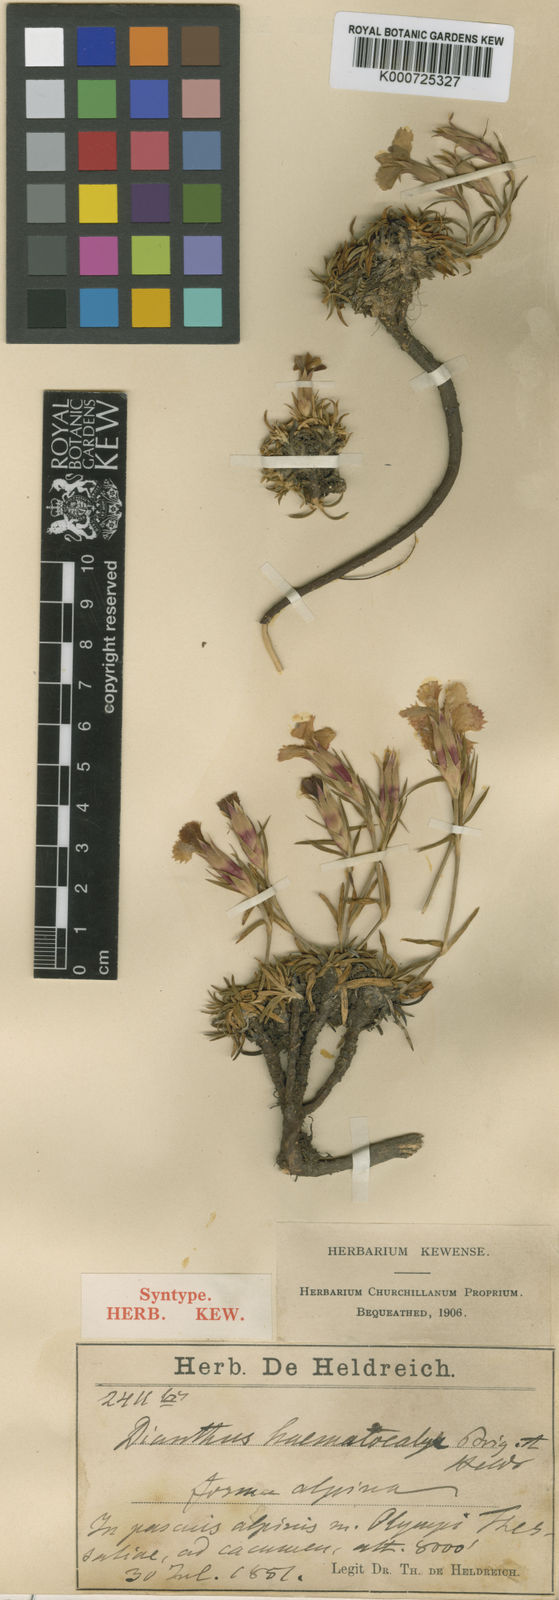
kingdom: Plantae
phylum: Tracheophyta
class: Magnoliopsida
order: Caryophyllales
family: Caryophyllaceae
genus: Dianthus
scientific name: Dianthus chinensis
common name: Rainbow pink
